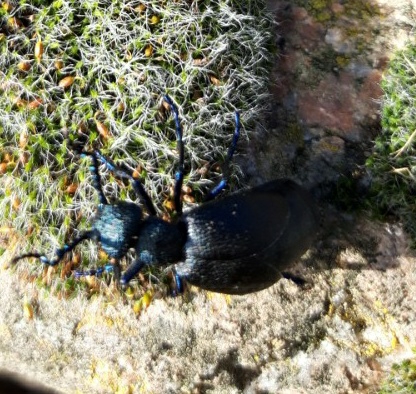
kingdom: Animalia
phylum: Arthropoda
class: Insecta
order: Coleoptera
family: Meloidae
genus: Meloe
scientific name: Meloe proscarabaeus
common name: Sort oliebille
